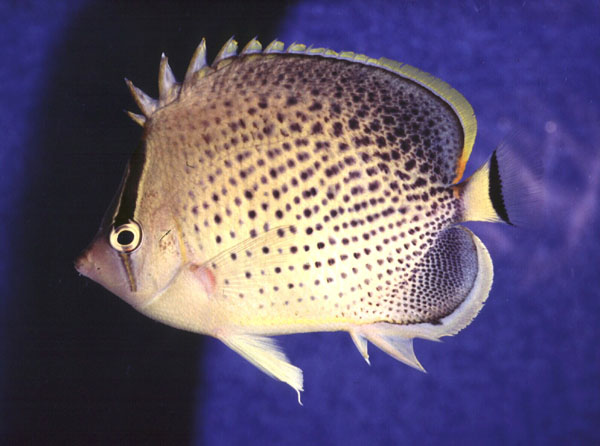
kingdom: Animalia
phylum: Chordata
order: Perciformes
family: Chaetodontidae
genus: Chaetodon
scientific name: Chaetodon guttatissimus
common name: Spotted butterflyfish
